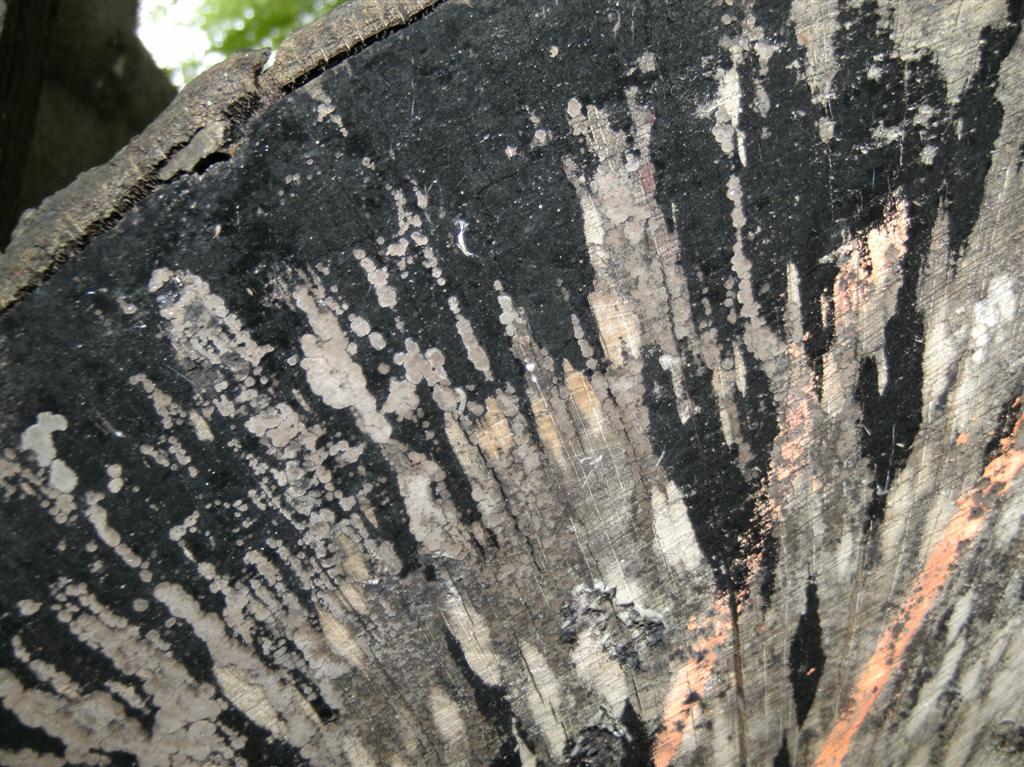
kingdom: Fungi
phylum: Ascomycota
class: Leotiomycetes
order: Helotiales
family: Helotiaceae
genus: Bispora
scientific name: Bispora pallescens
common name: måtte-snitskive
